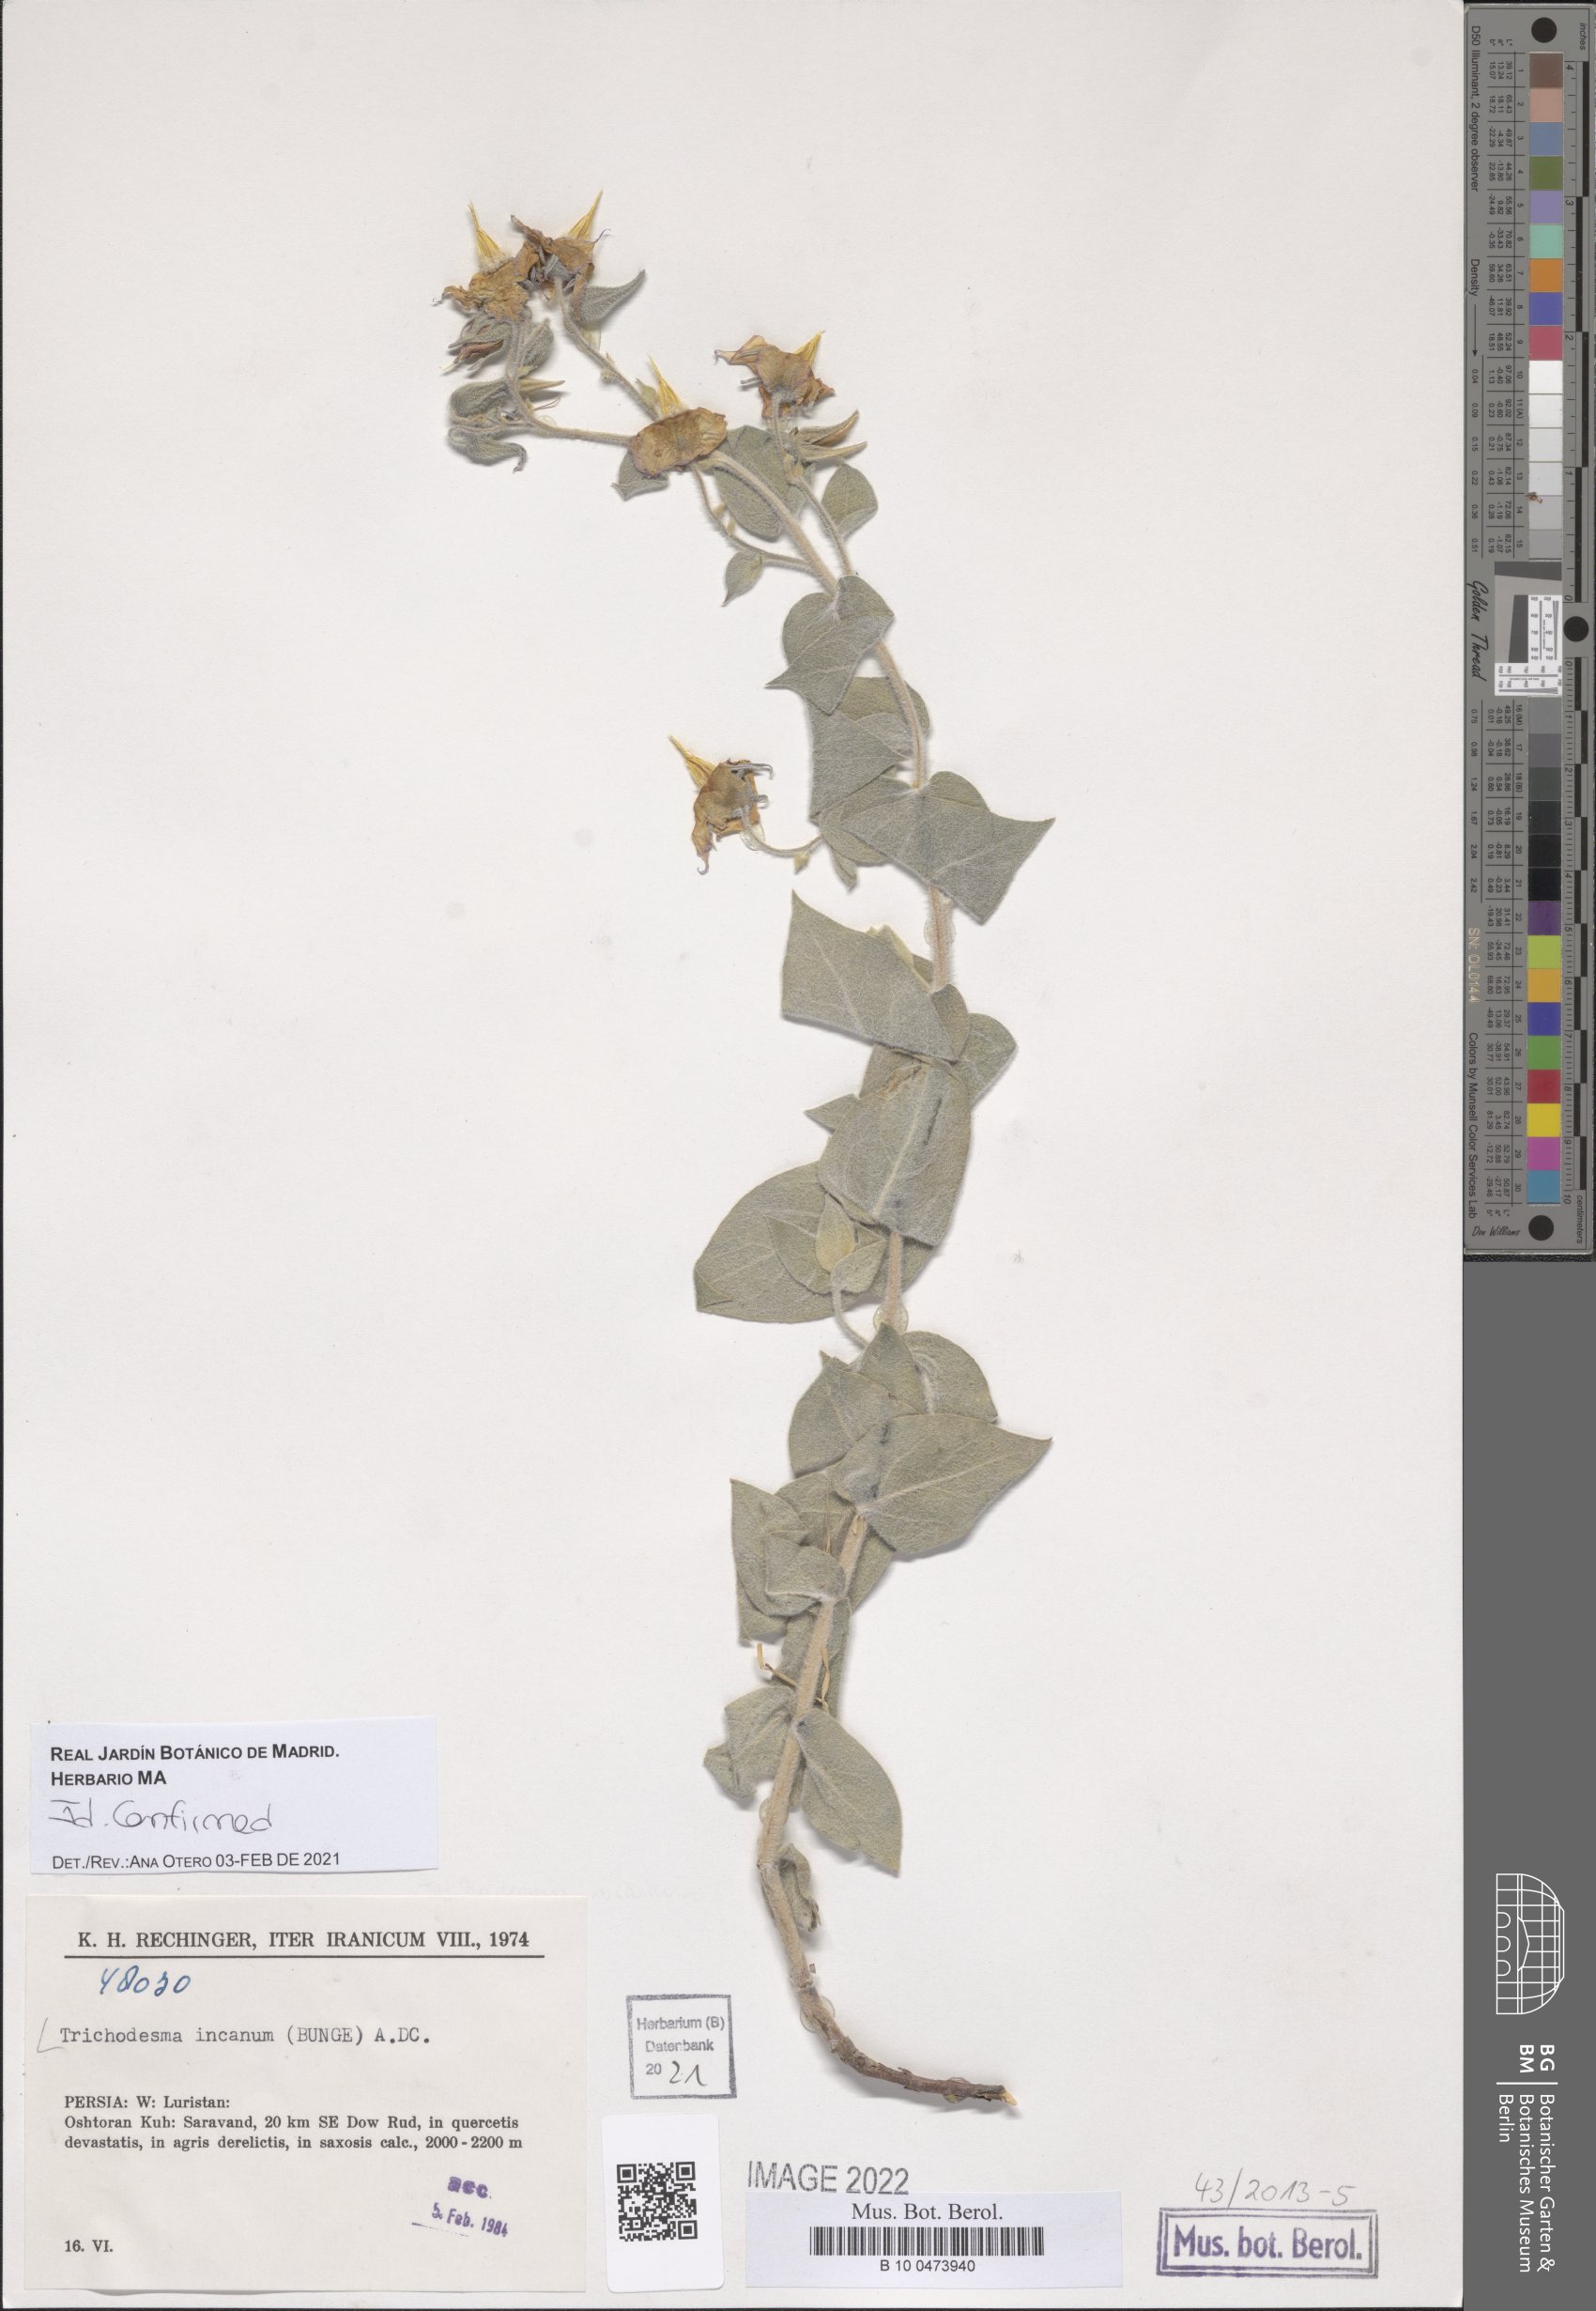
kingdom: Plantae
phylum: Tracheophyta
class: Magnoliopsida
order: Boraginales
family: Boraginaceae
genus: Trichodesma
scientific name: Trichodesma incanum
